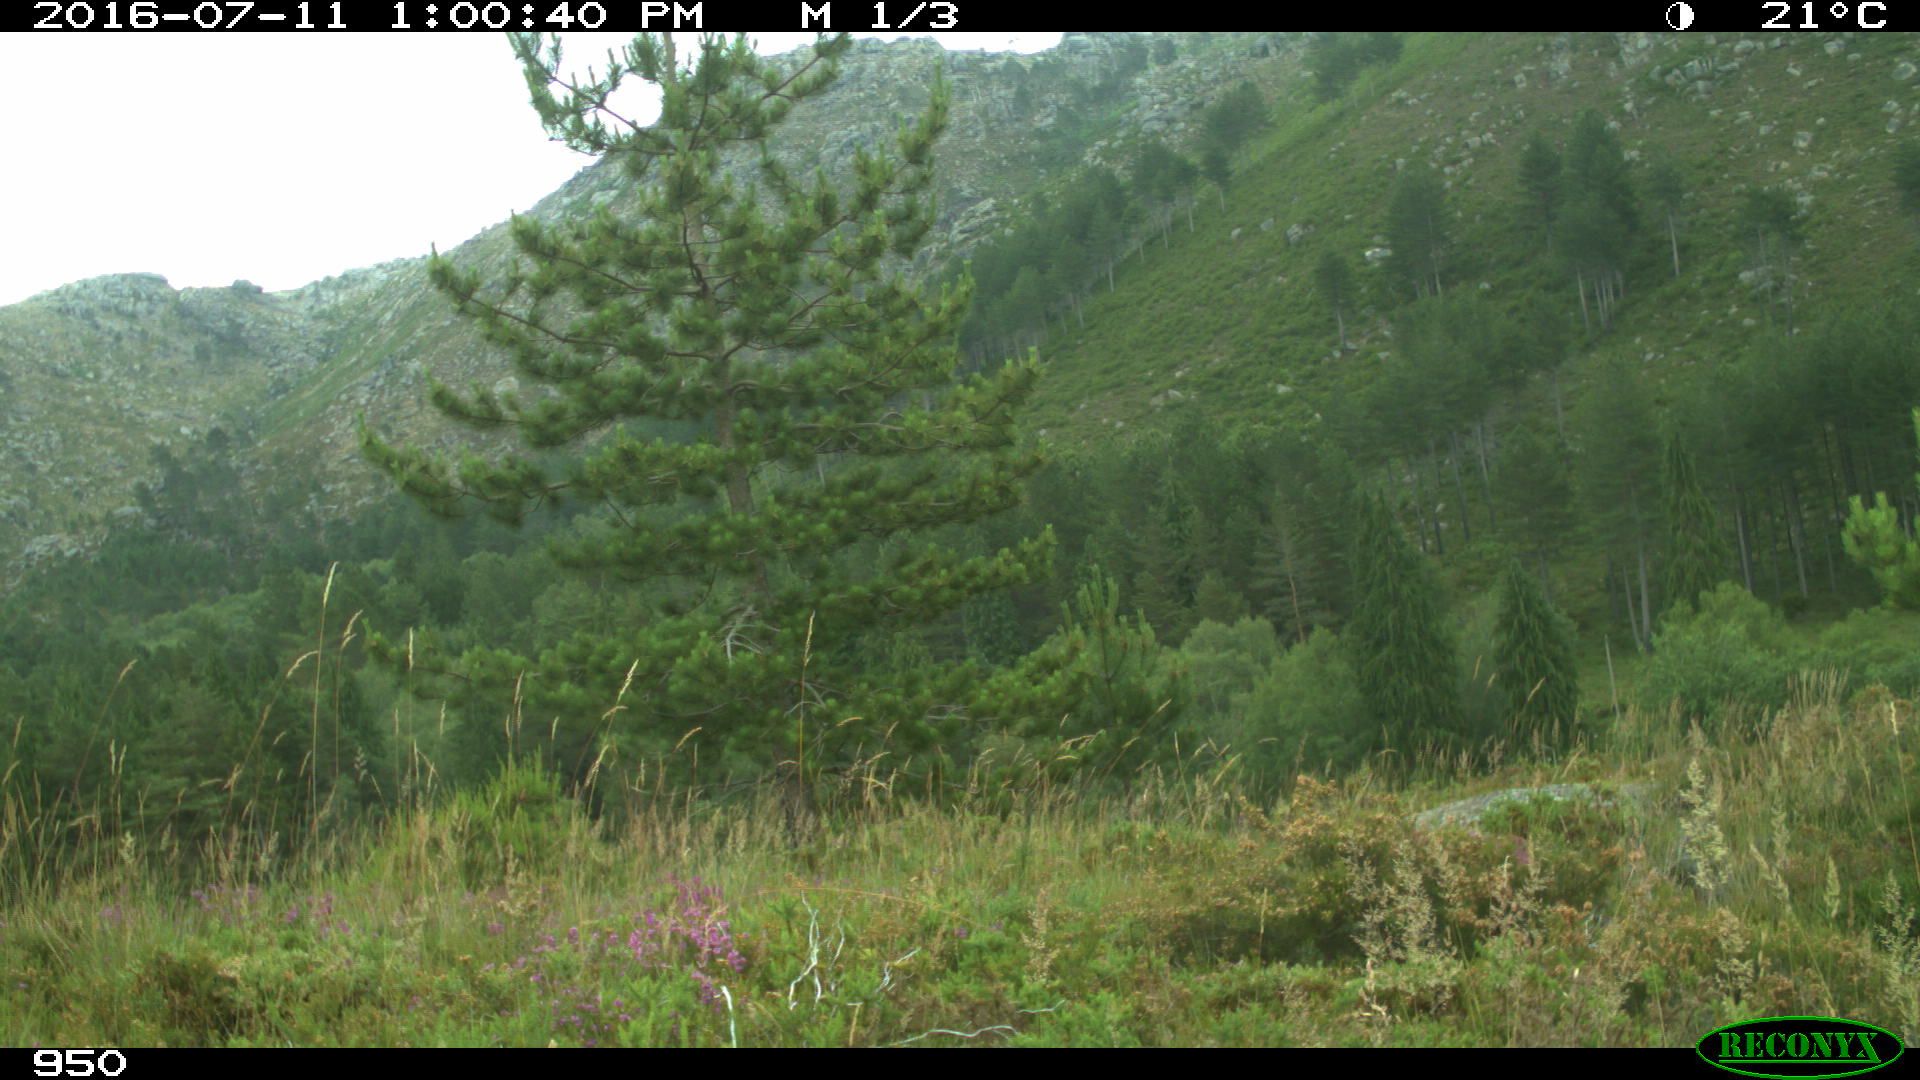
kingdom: Animalia
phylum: Chordata
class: Mammalia
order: Artiodactyla
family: Bovidae
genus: Bos
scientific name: Bos taurus
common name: Domesticated cattle
